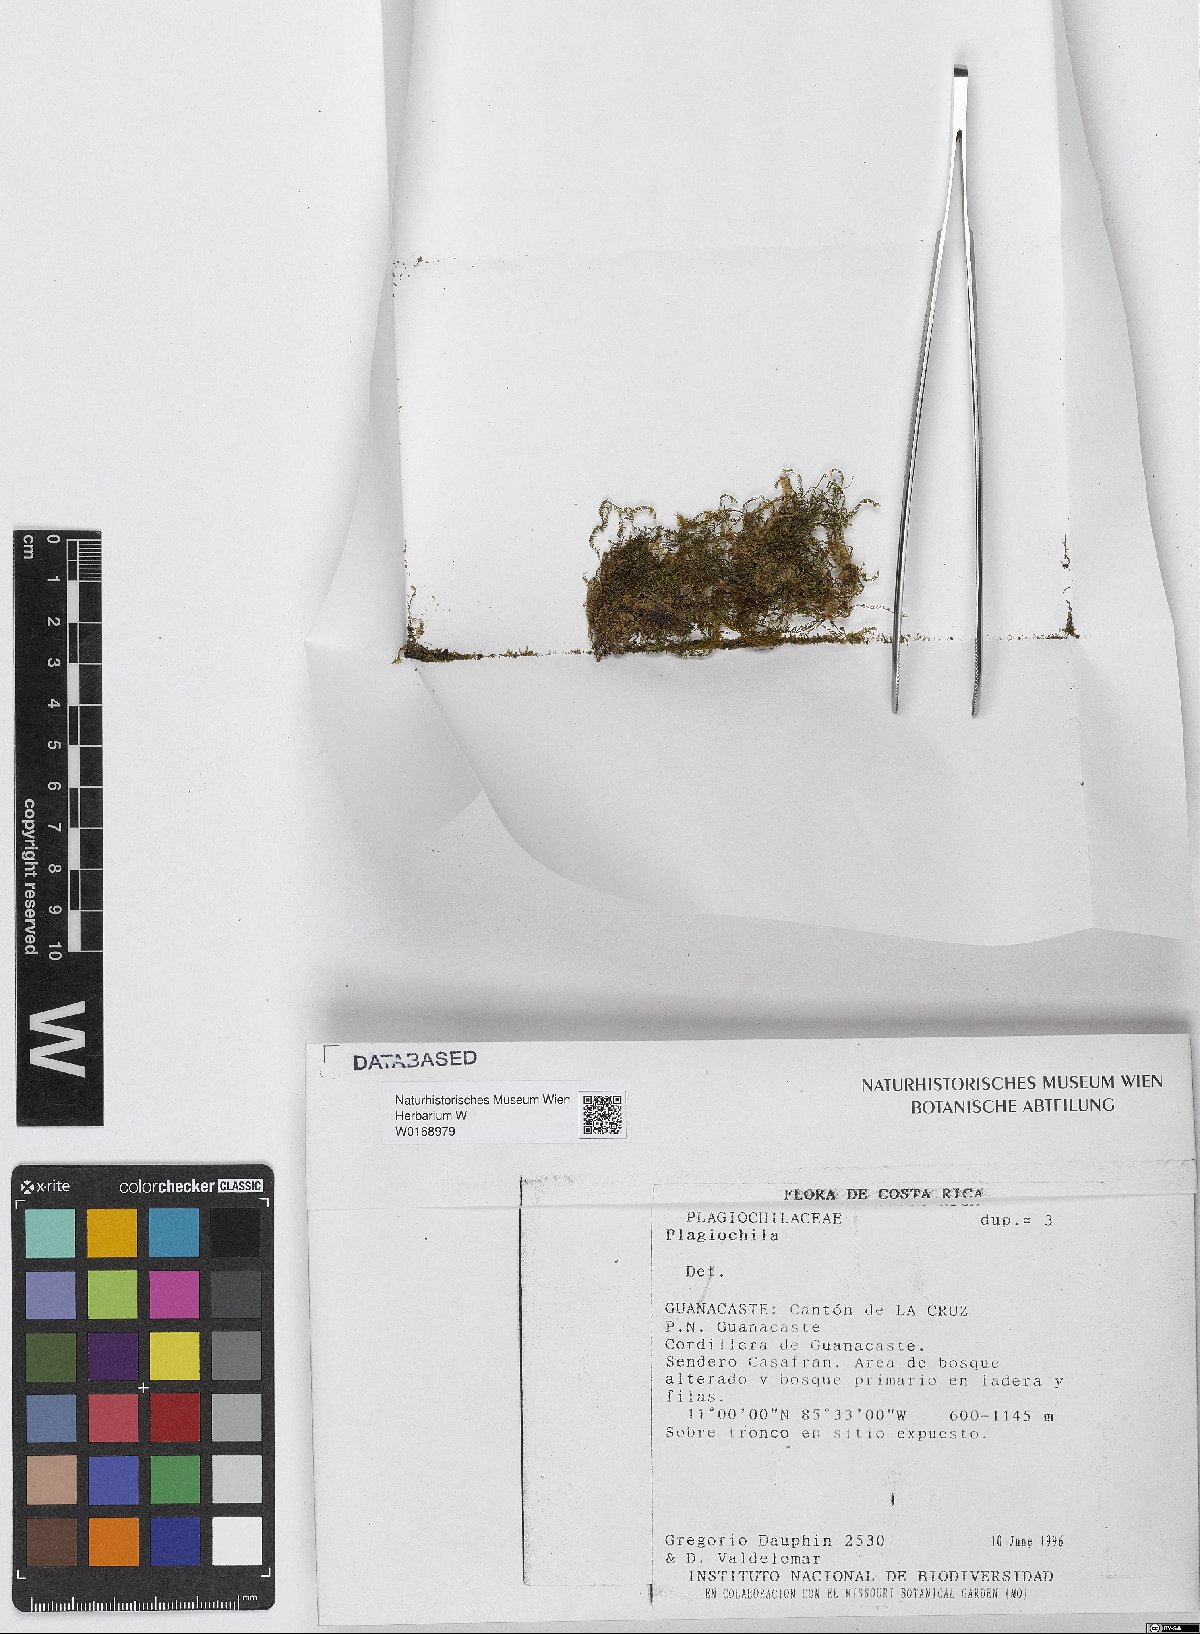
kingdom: Plantae
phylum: Marchantiophyta
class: Jungermanniopsida
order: Jungermanniales
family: Plagiochilaceae
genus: Plagiochila
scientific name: Plagiochila
